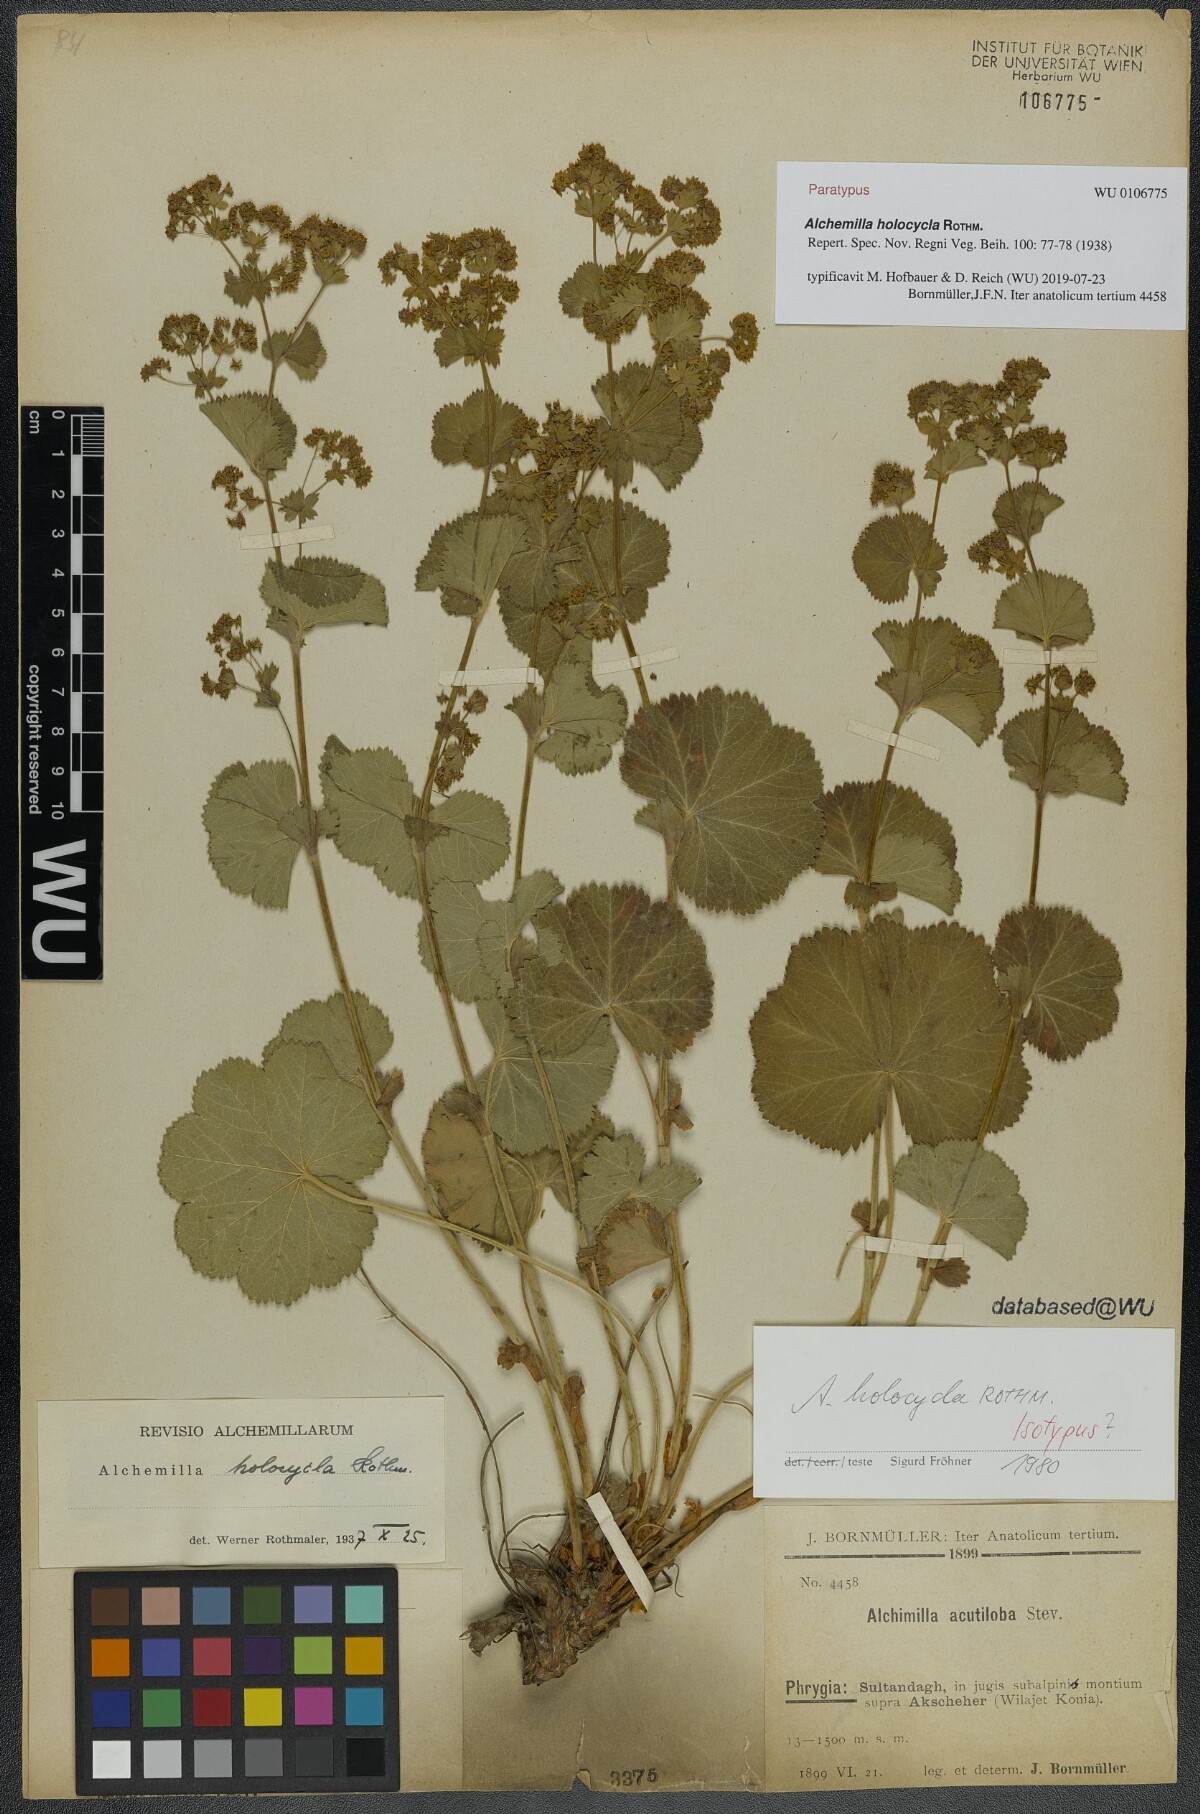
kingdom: Plantae
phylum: Tracheophyta
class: Magnoliopsida
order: Rosales
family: Rosaceae
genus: Alchemilla
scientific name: Alchemilla holocycla
